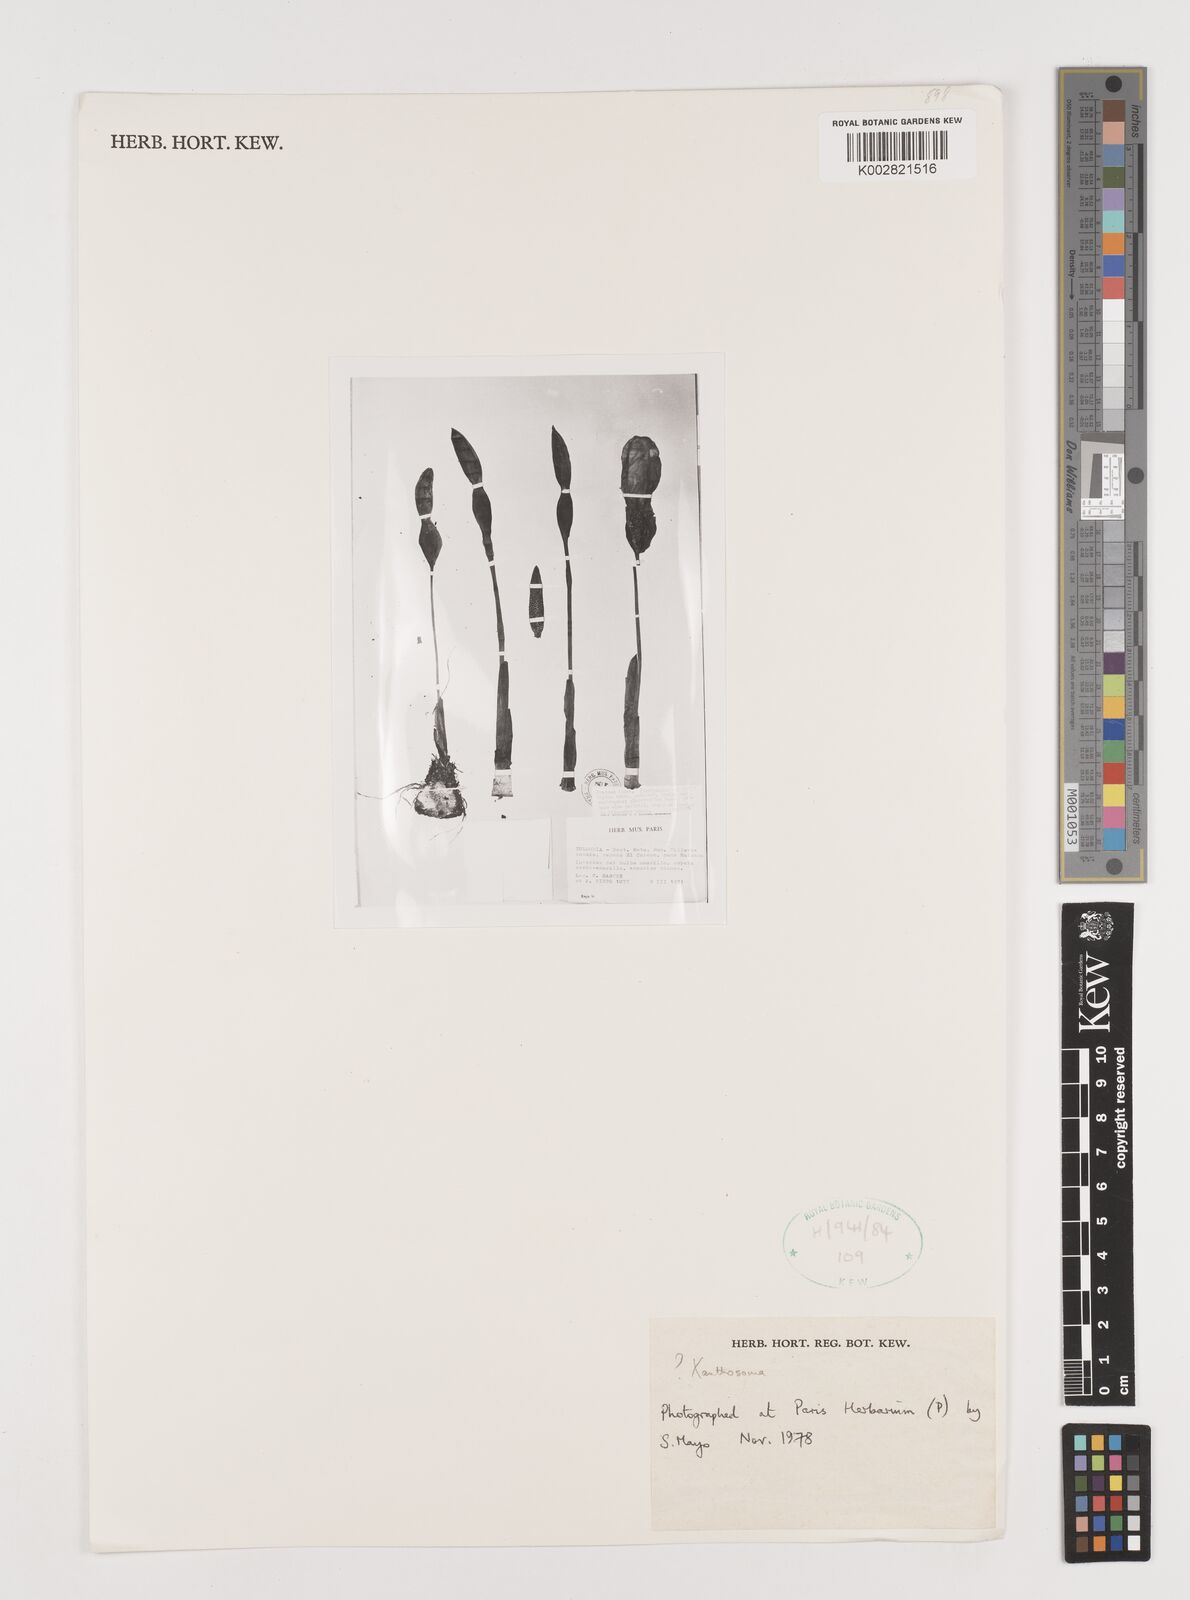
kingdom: Plantae
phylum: Tracheophyta
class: Liliopsida
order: Alismatales
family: Araceae
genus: Xanthosoma
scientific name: Xanthosoma
